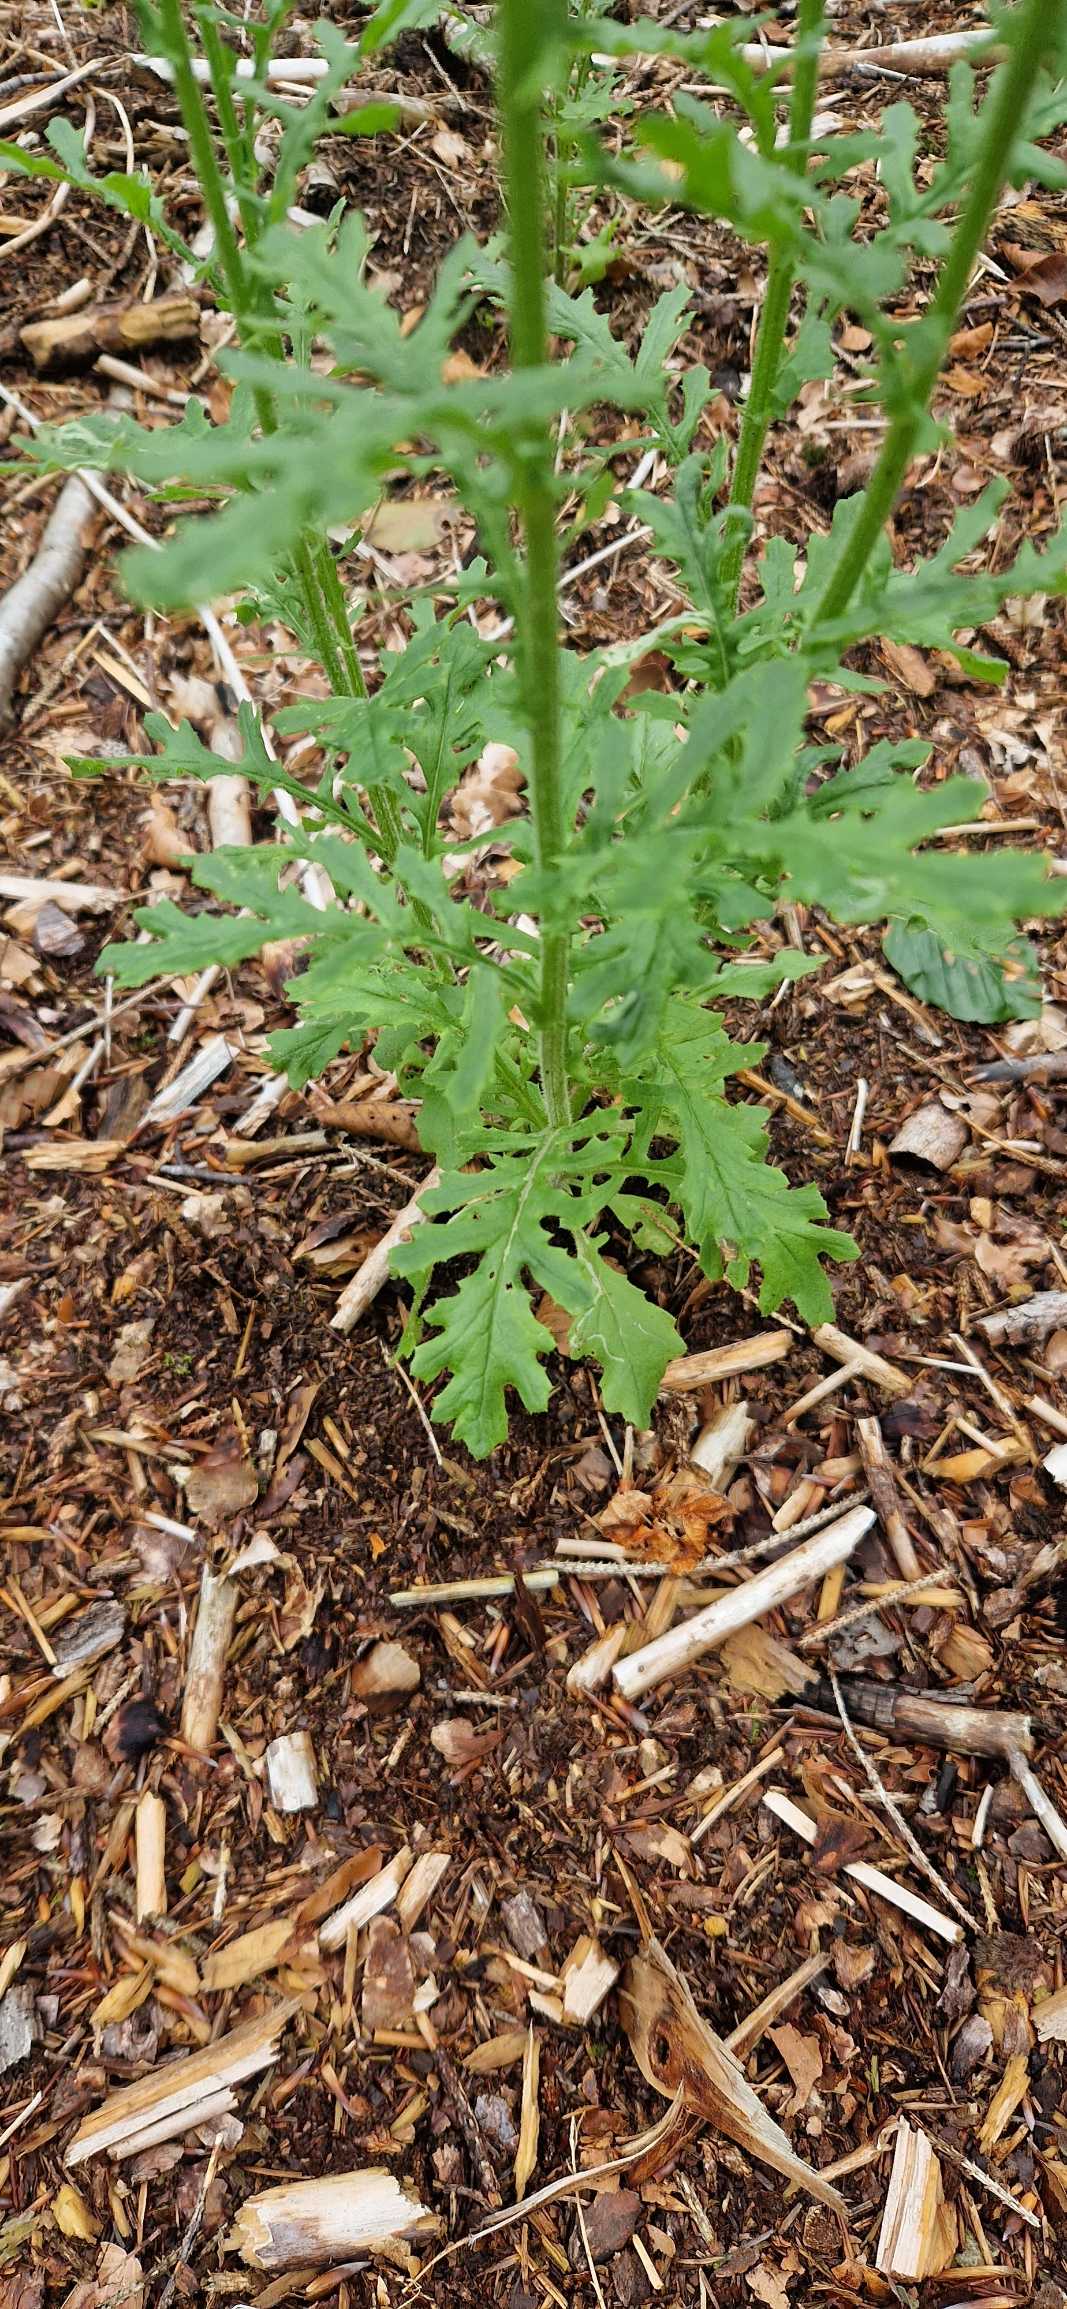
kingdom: Plantae
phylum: Tracheophyta
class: Magnoliopsida
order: Asterales
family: Asteraceae
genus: Senecio
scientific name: Senecio sylvaticus
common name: Skov-brandbæger
